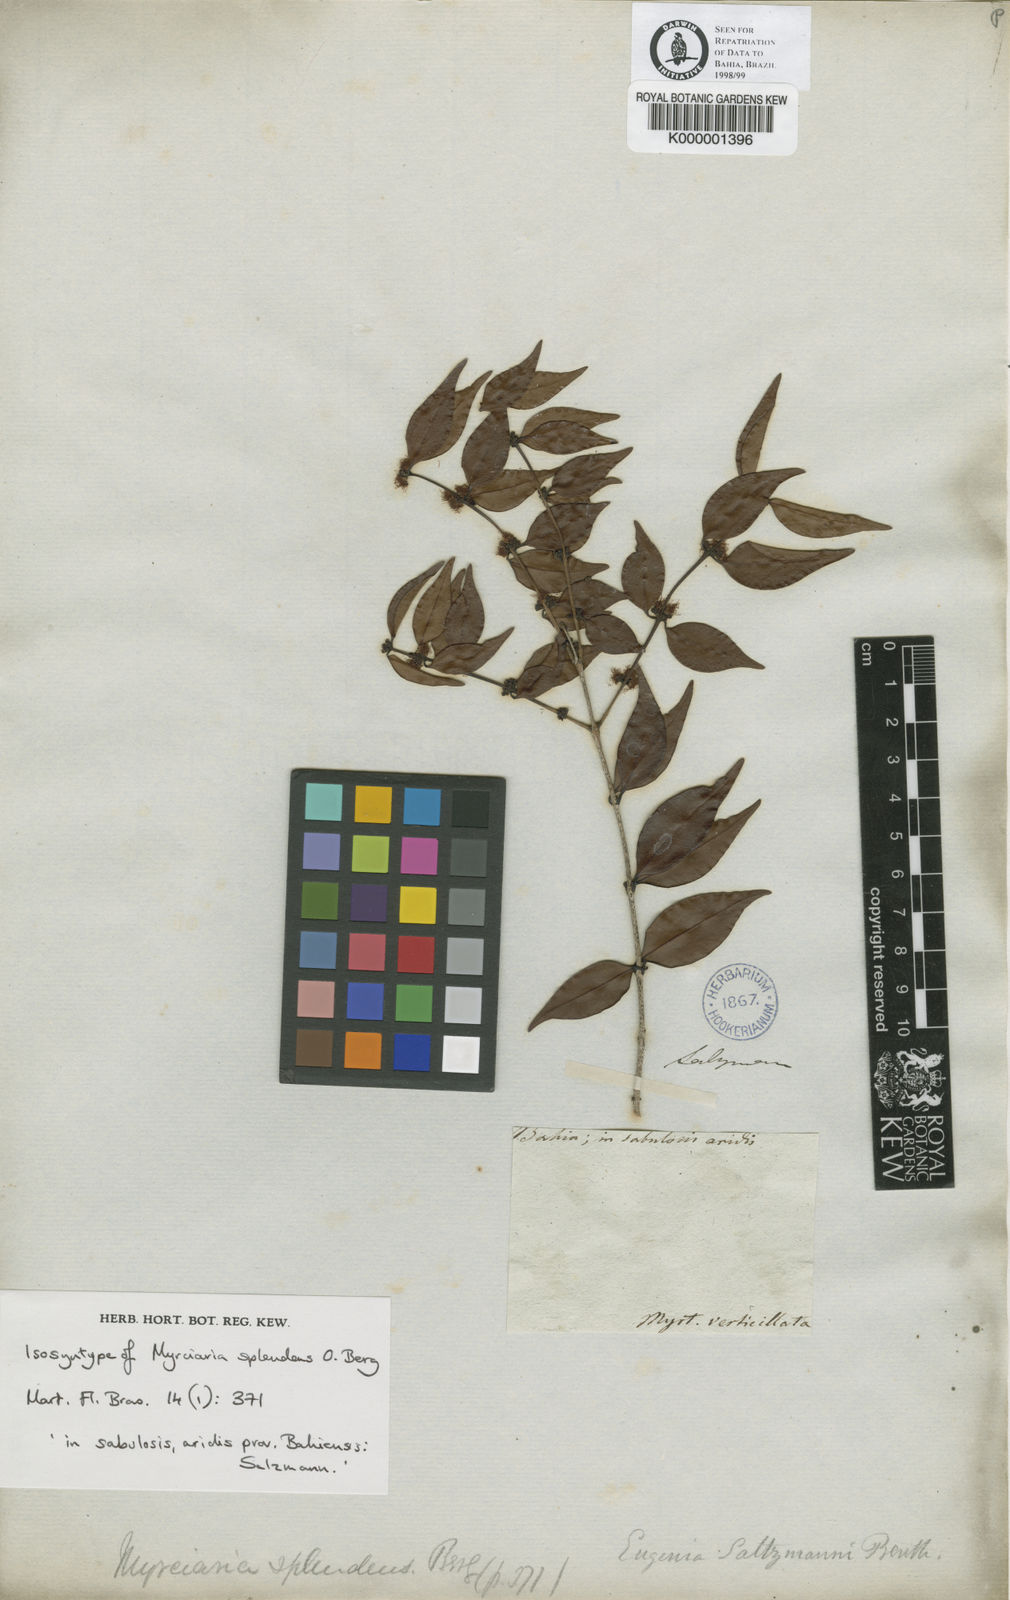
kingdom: Plantae
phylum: Tracheophyta
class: Magnoliopsida
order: Myrtales
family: Myrtaceae
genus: Myrciaria
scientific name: Myrciaria floribunda
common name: Guavaberry
